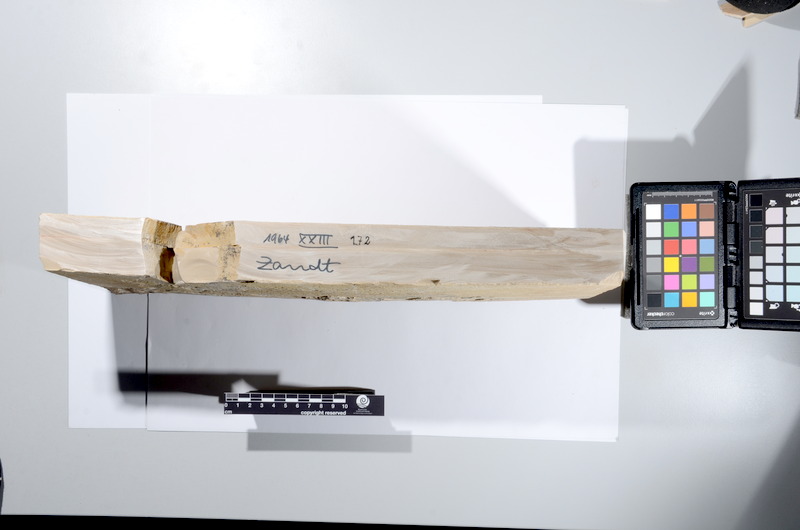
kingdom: Animalia
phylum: Chordata
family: Ankylophoridae
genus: Siemensichthys
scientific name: Siemensichthys macrocephalus
